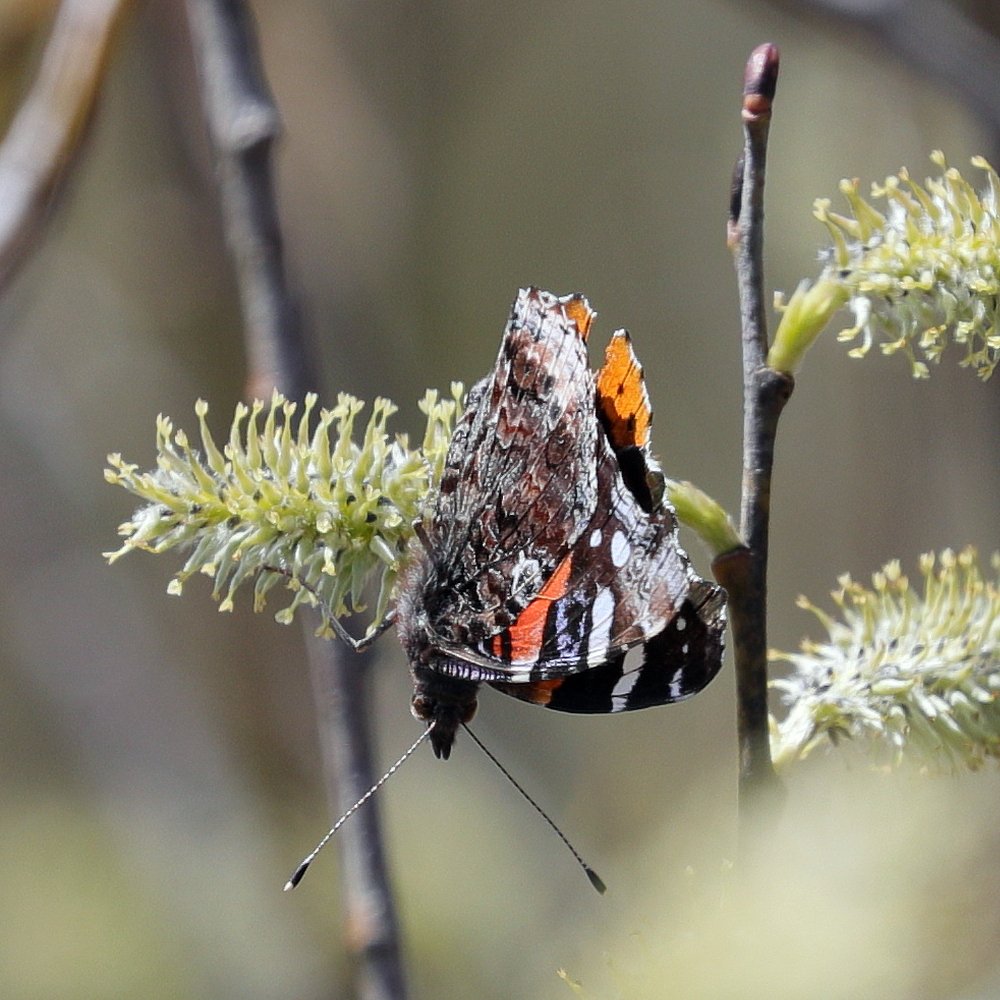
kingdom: Animalia
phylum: Arthropoda
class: Insecta
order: Lepidoptera
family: Nymphalidae
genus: Vanessa
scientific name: Vanessa atalanta
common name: Red Admiral
